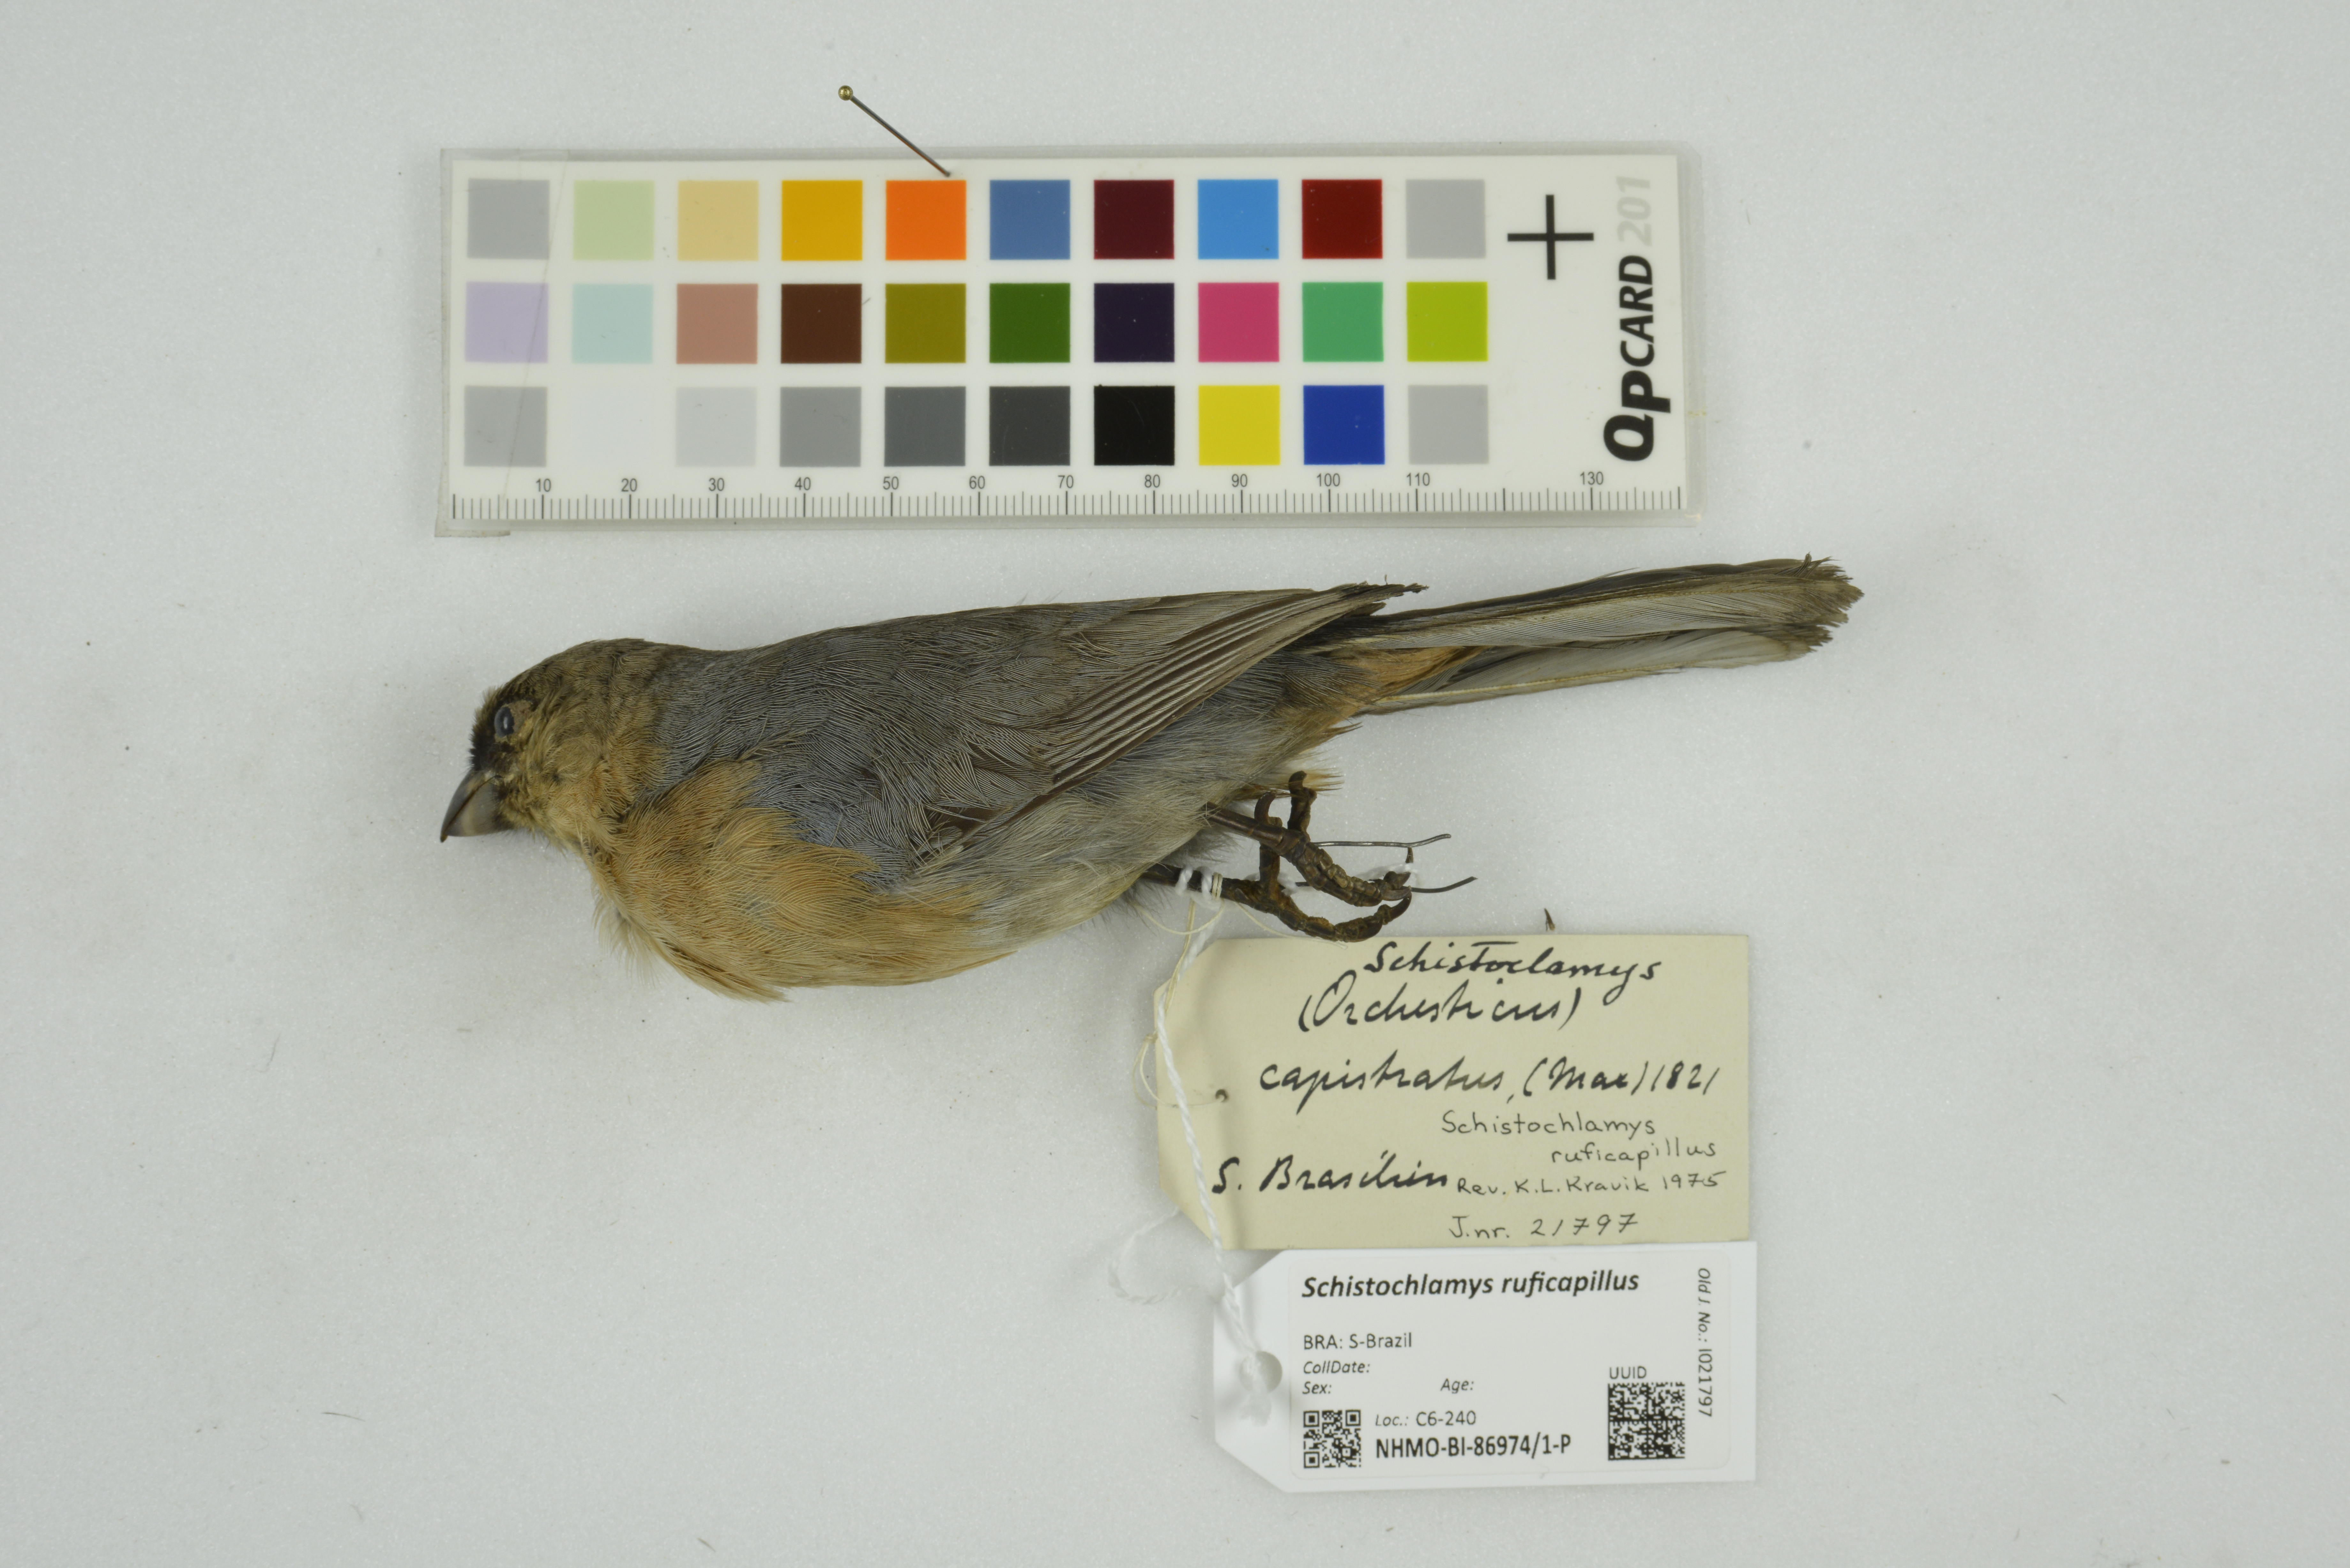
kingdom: Animalia
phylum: Chordata
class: Aves
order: Passeriformes
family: Thraupidae
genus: Schistochlamys
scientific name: Schistochlamys ruficapillus
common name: Cinnamon tanager
